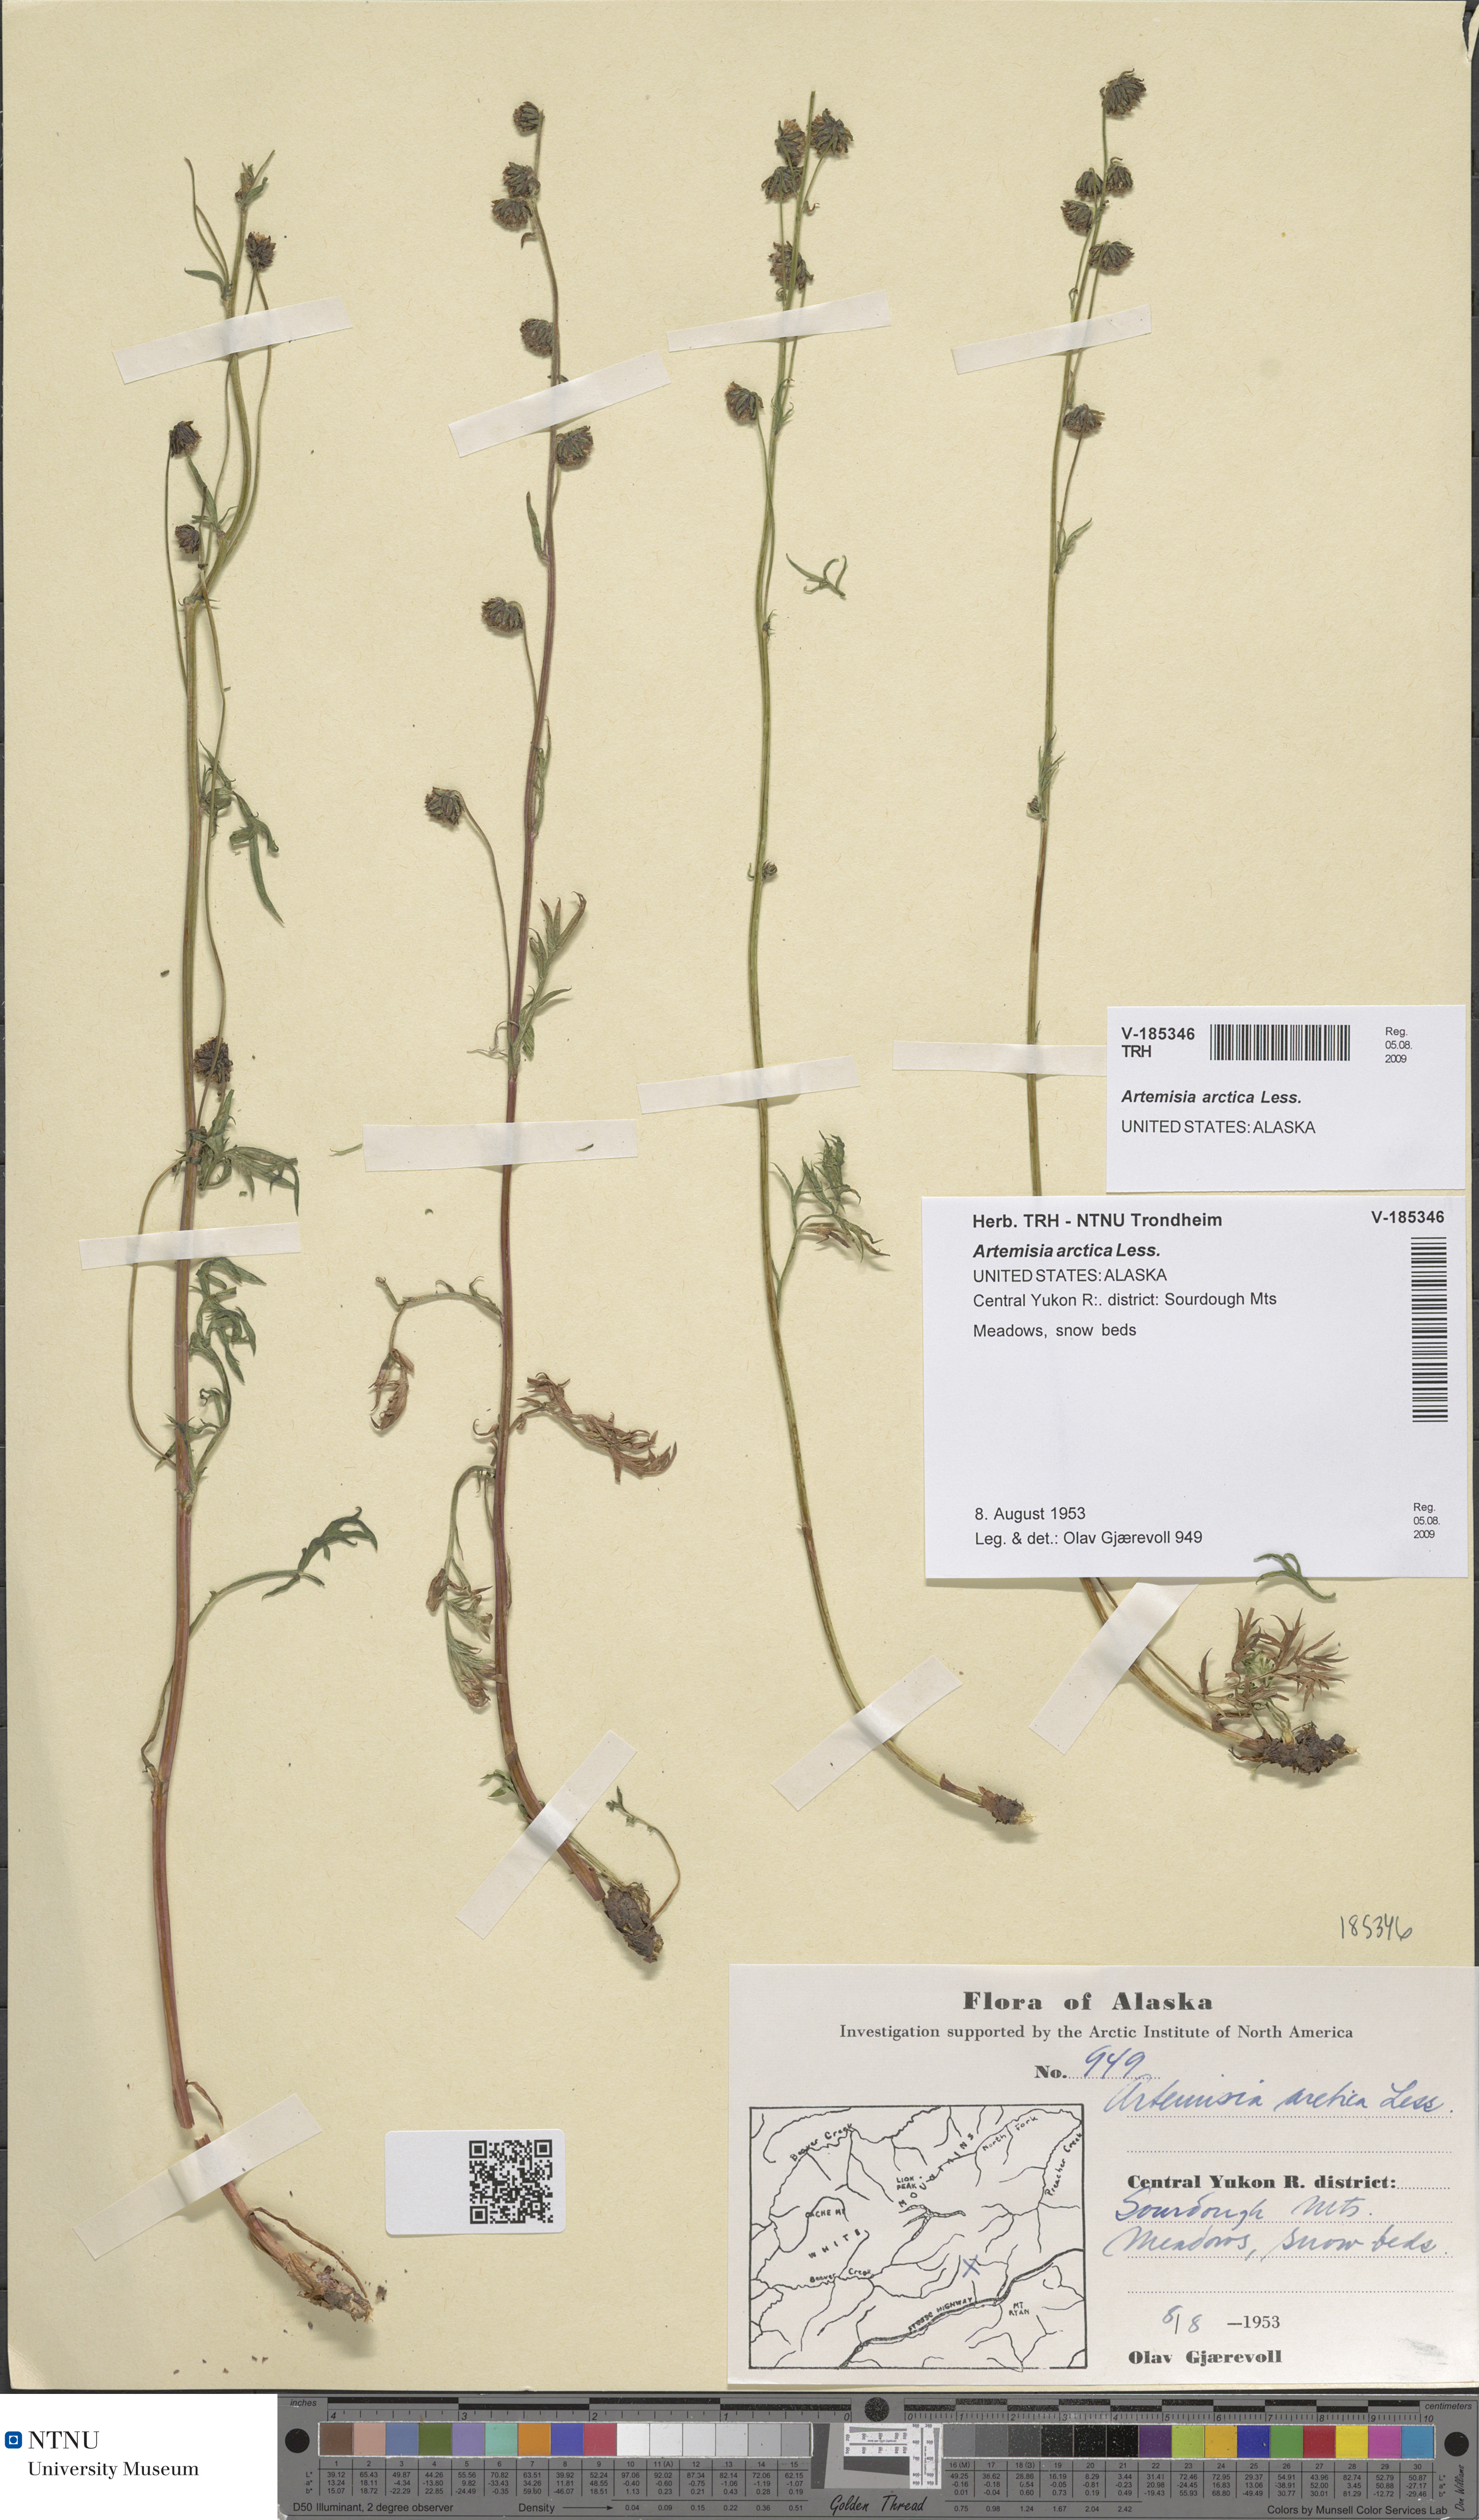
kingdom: Plantae
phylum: Tracheophyta
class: Magnoliopsida
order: Asterales
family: Asteraceae
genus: Artemisia
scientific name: Artemisia norvegica
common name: Norwegian mugwort
